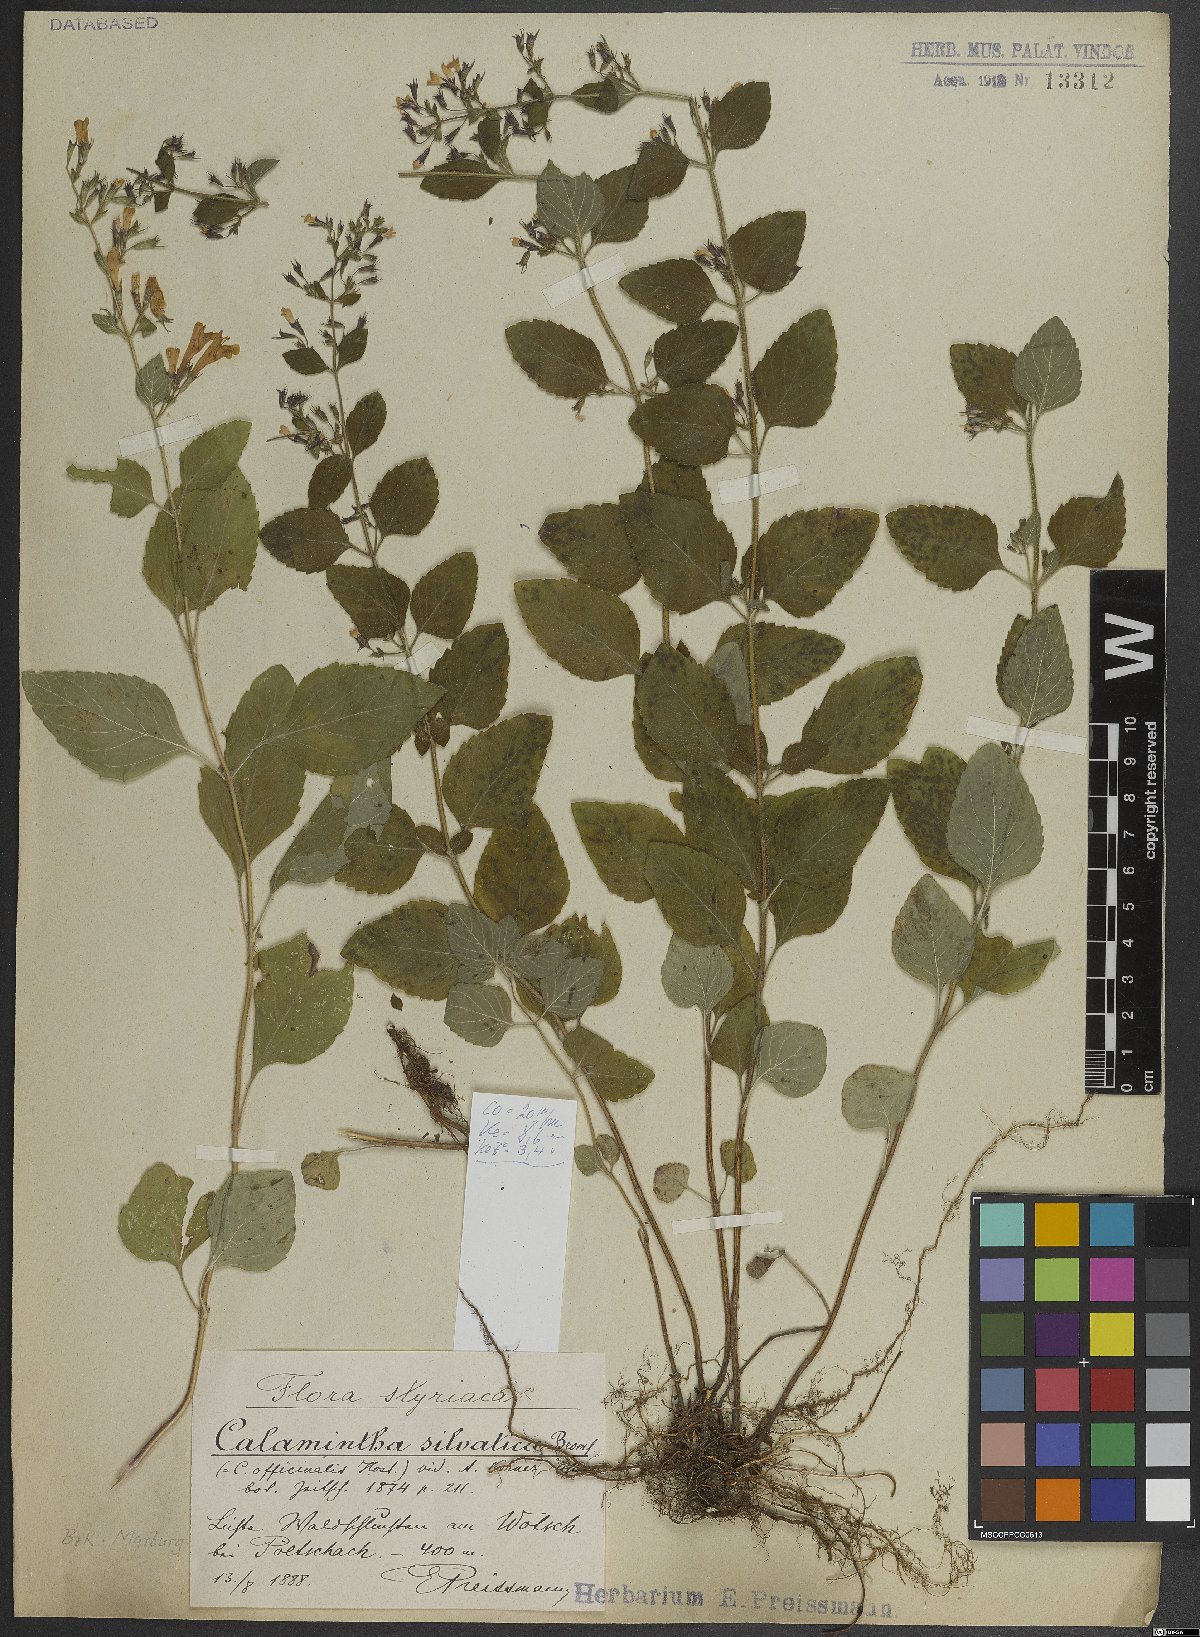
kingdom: Plantae
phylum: Tracheophyta
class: Magnoliopsida
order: Lamiales
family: Lamiaceae
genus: Clinopodium
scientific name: Clinopodium menthifolium
